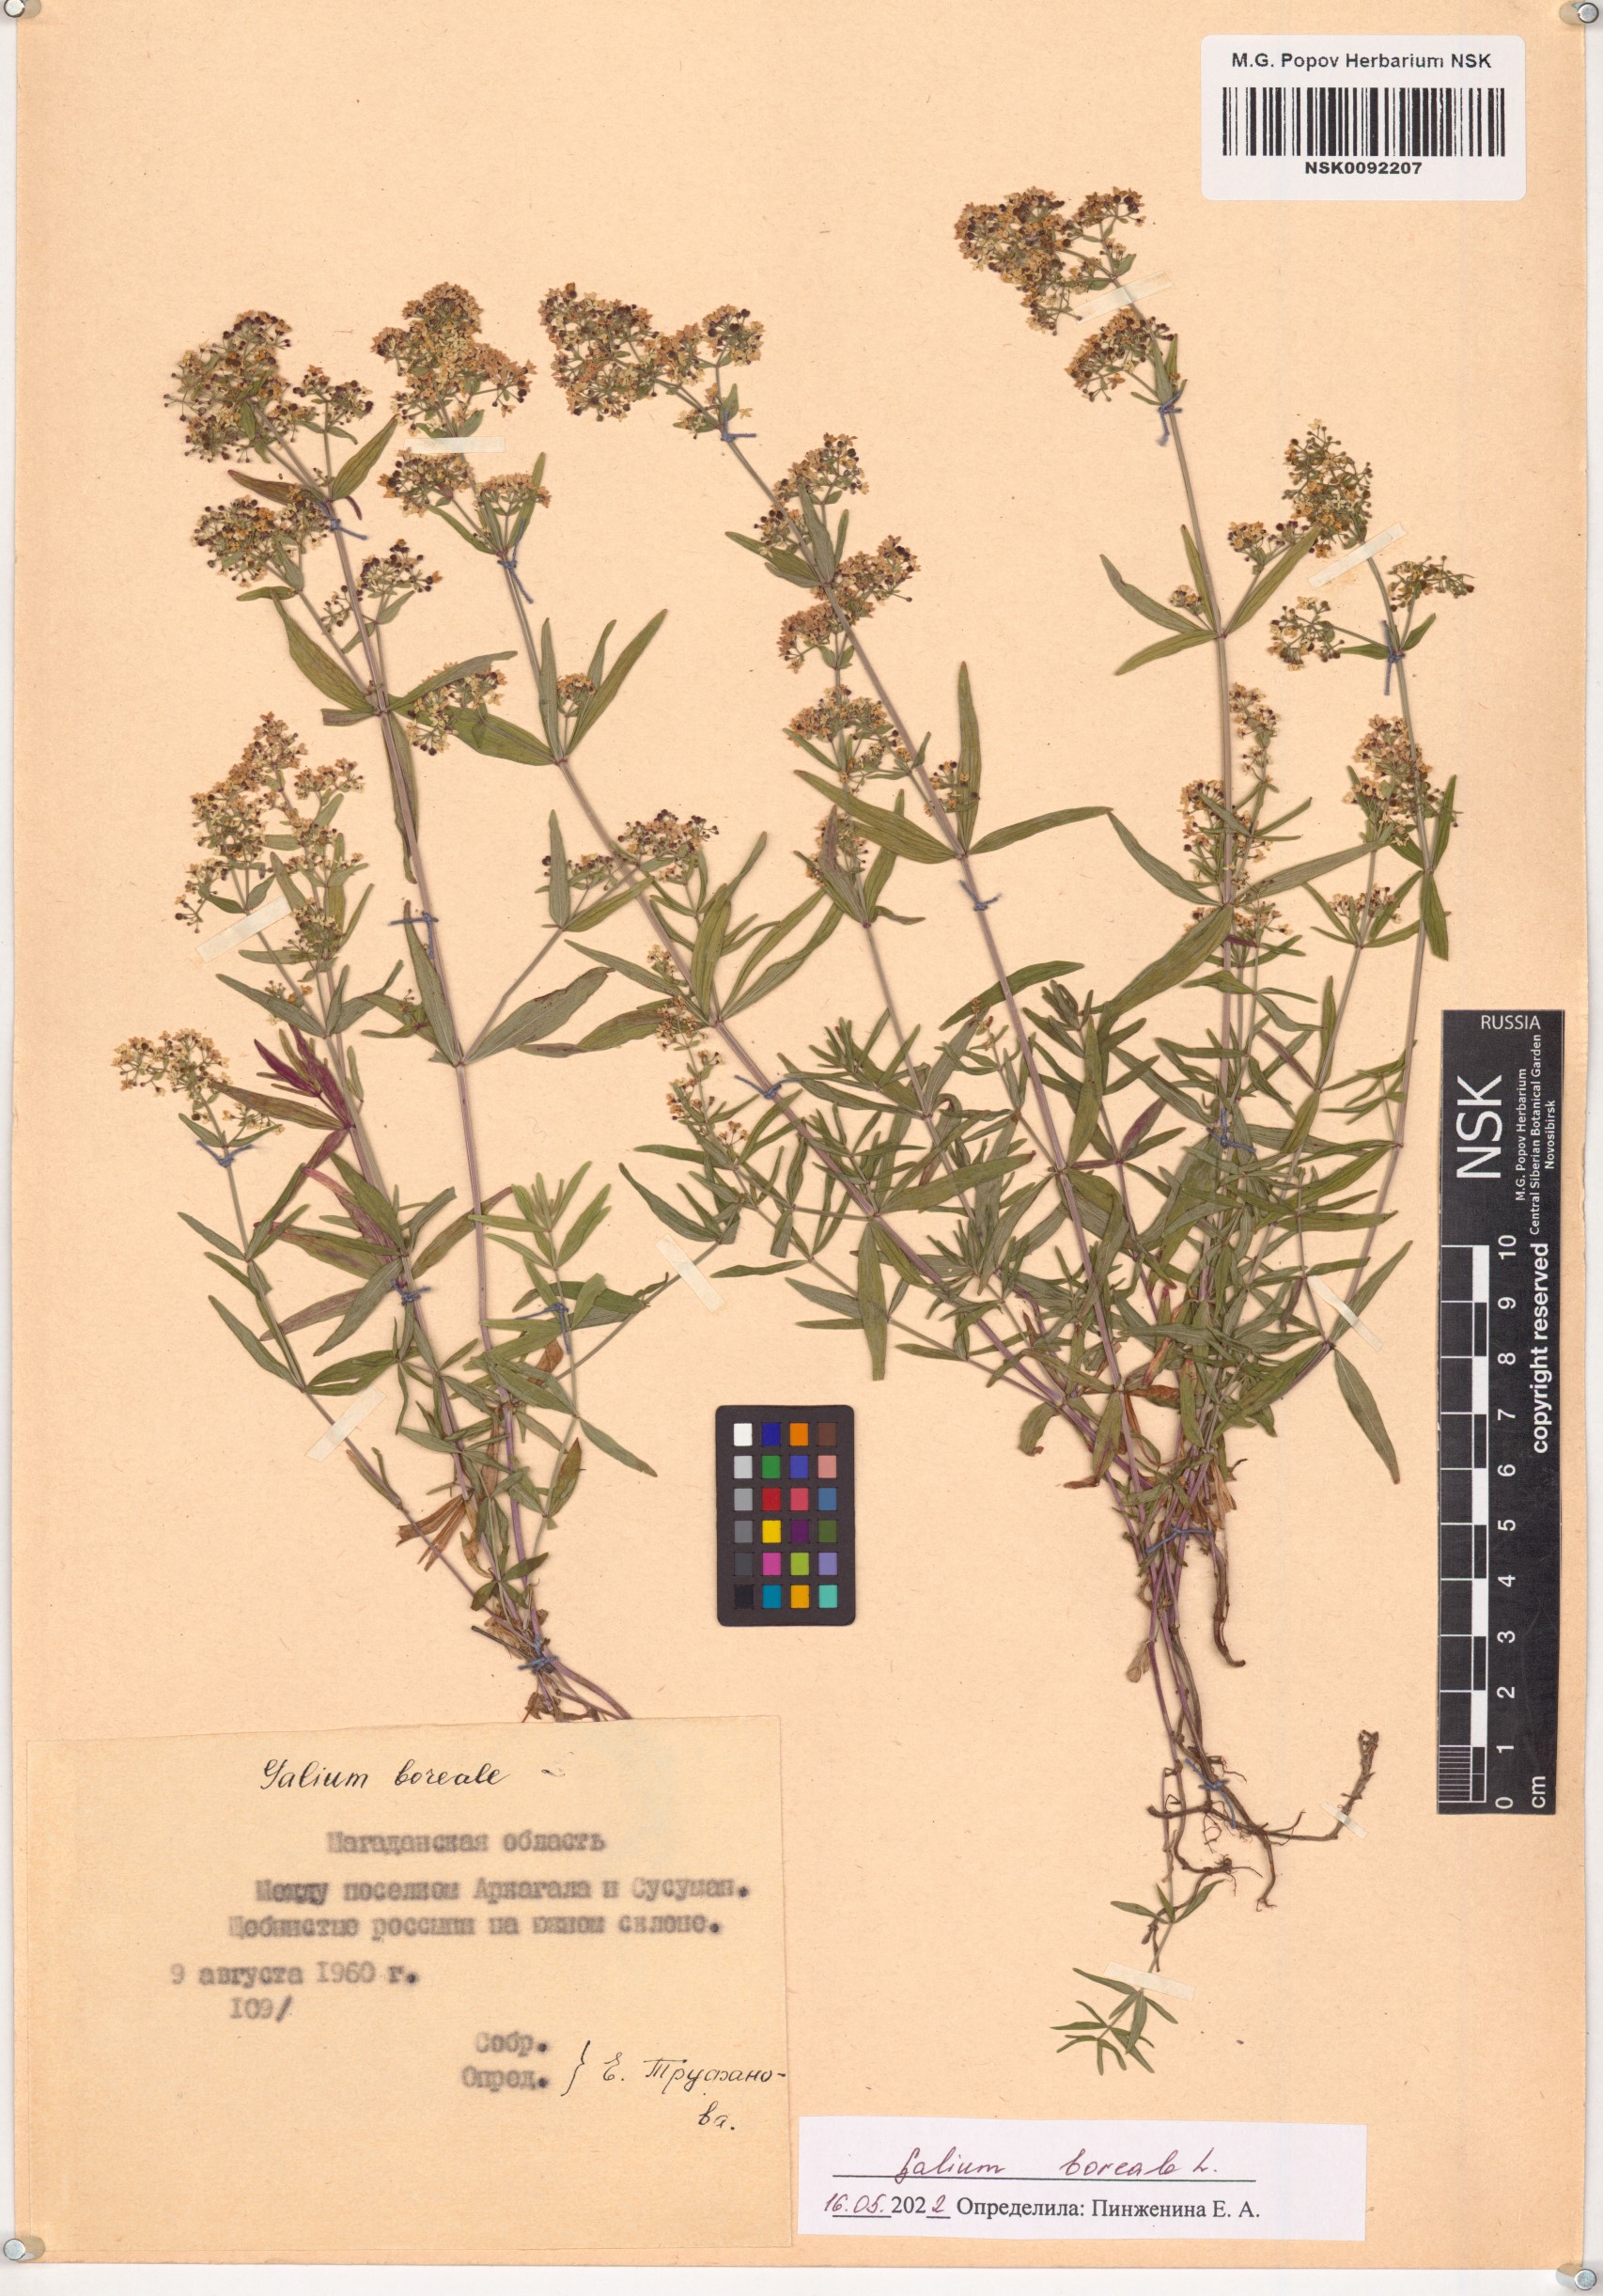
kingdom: Plantae
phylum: Tracheophyta
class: Magnoliopsida
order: Gentianales
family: Rubiaceae
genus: Galium
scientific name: Galium boreale
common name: Northern bedstraw
